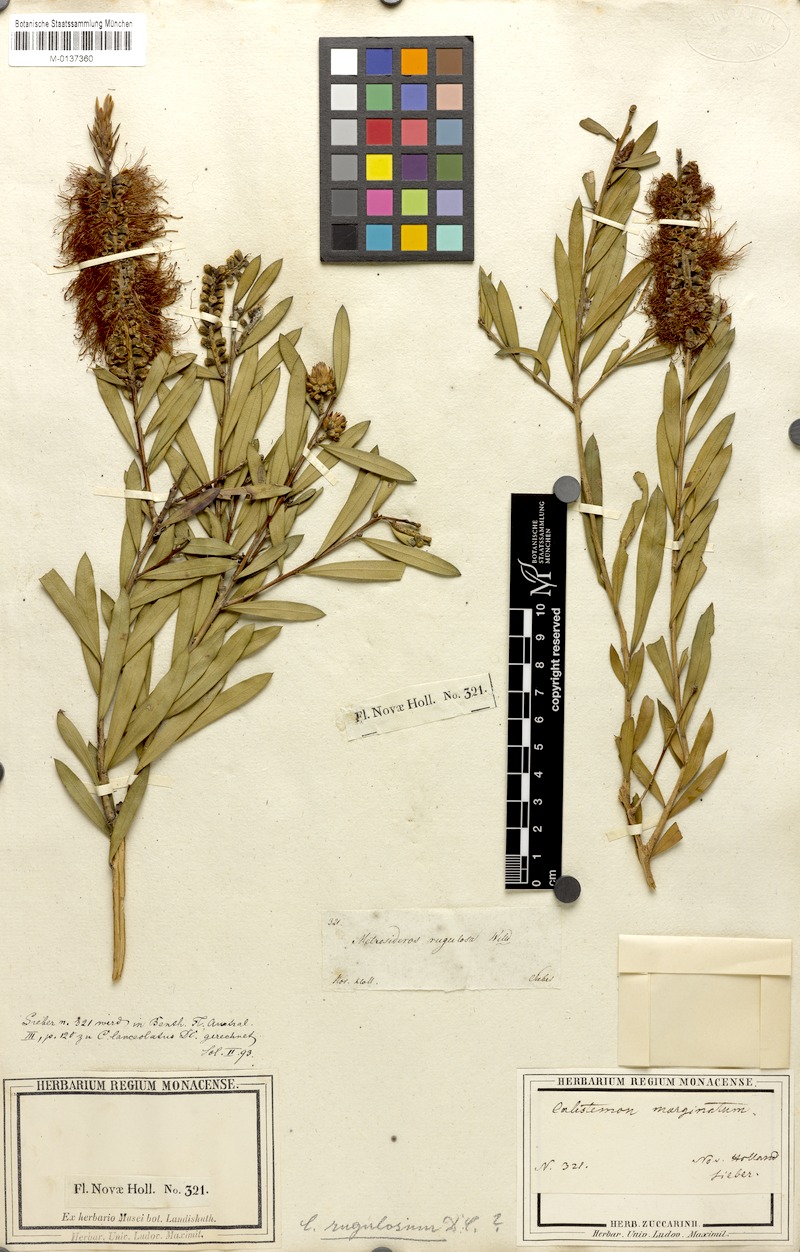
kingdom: Plantae
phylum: Tracheophyta
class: Magnoliopsida
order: Myrtales
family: Myrtaceae
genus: Callistemon
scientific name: Callistemon rugulosus
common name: Scarlet bottlebrush
